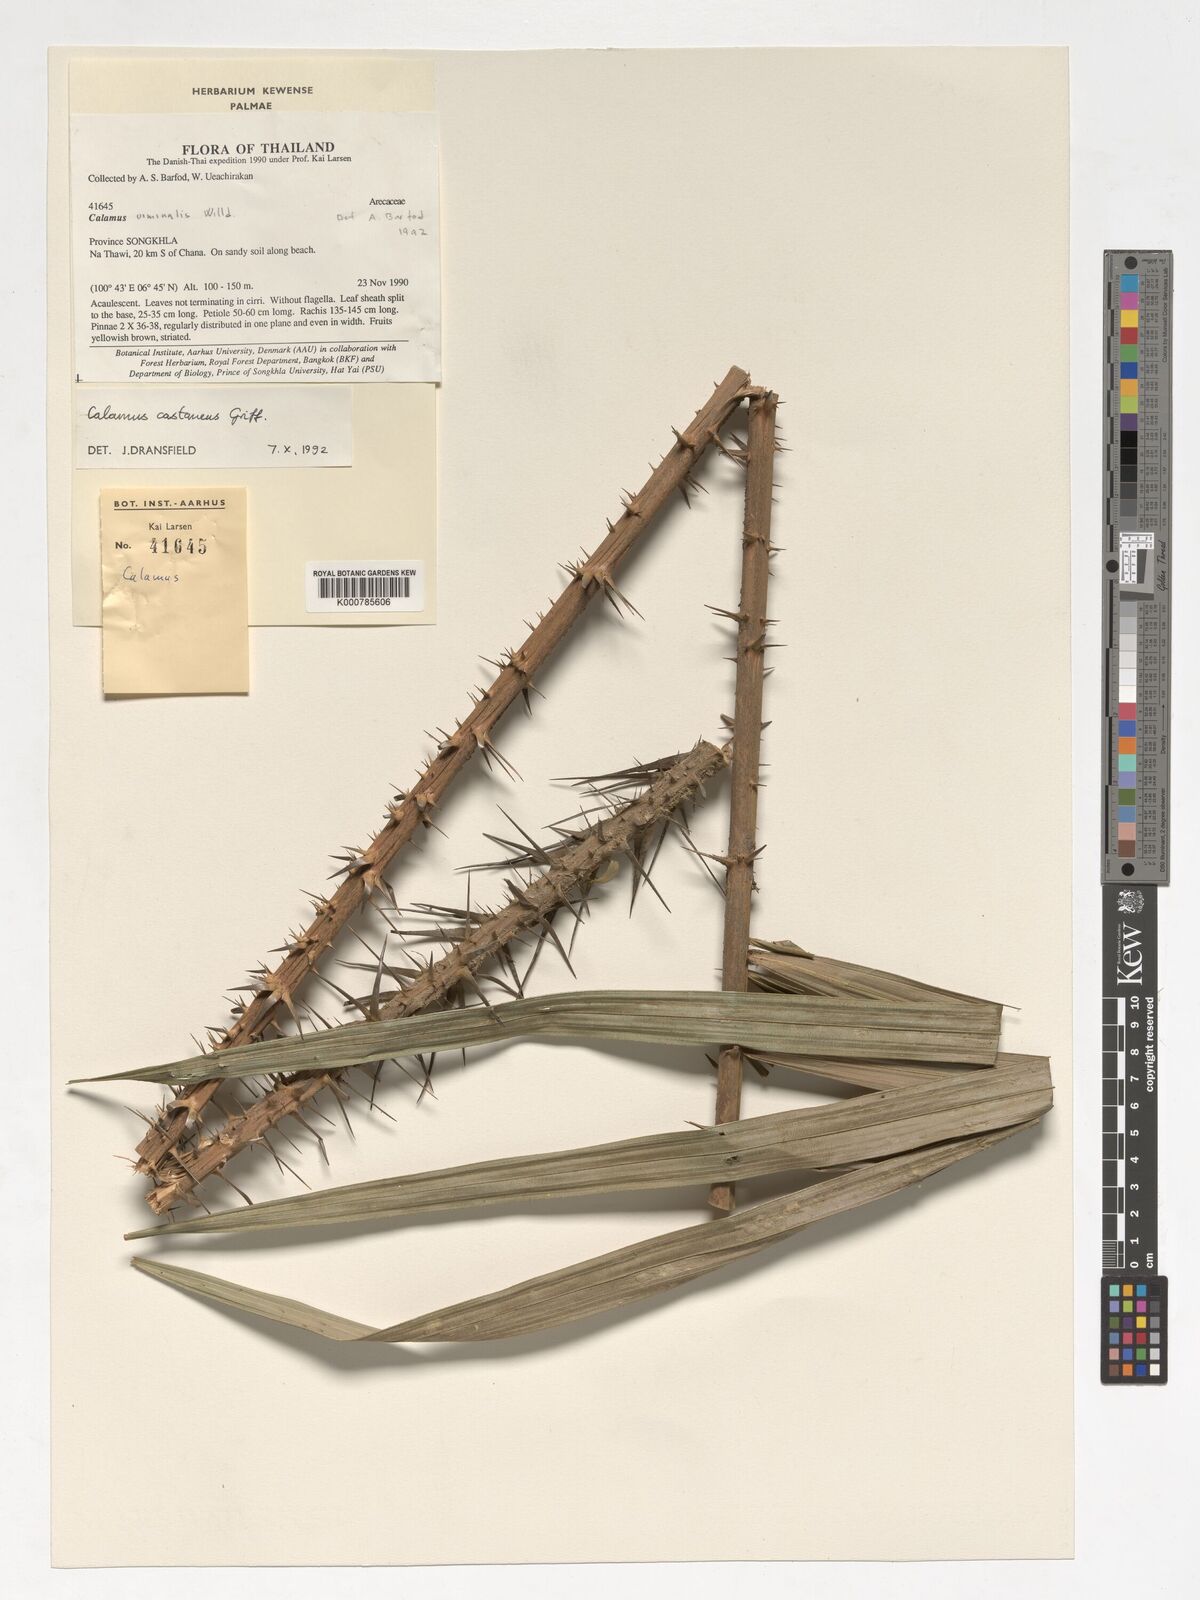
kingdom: Plantae
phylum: Tracheophyta
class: Liliopsida
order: Arecales
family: Arecaceae
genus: Calamus
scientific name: Calamus castaneus
